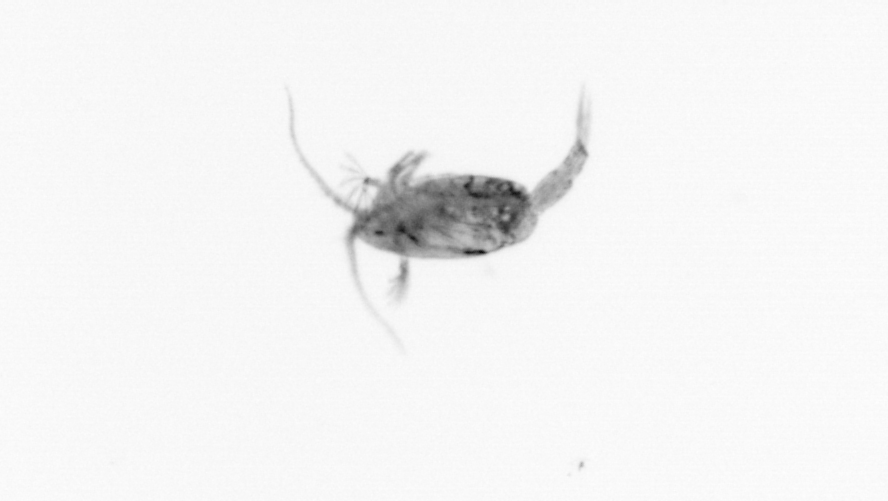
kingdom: Animalia
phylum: Arthropoda
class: Copepoda
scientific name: Copepoda
